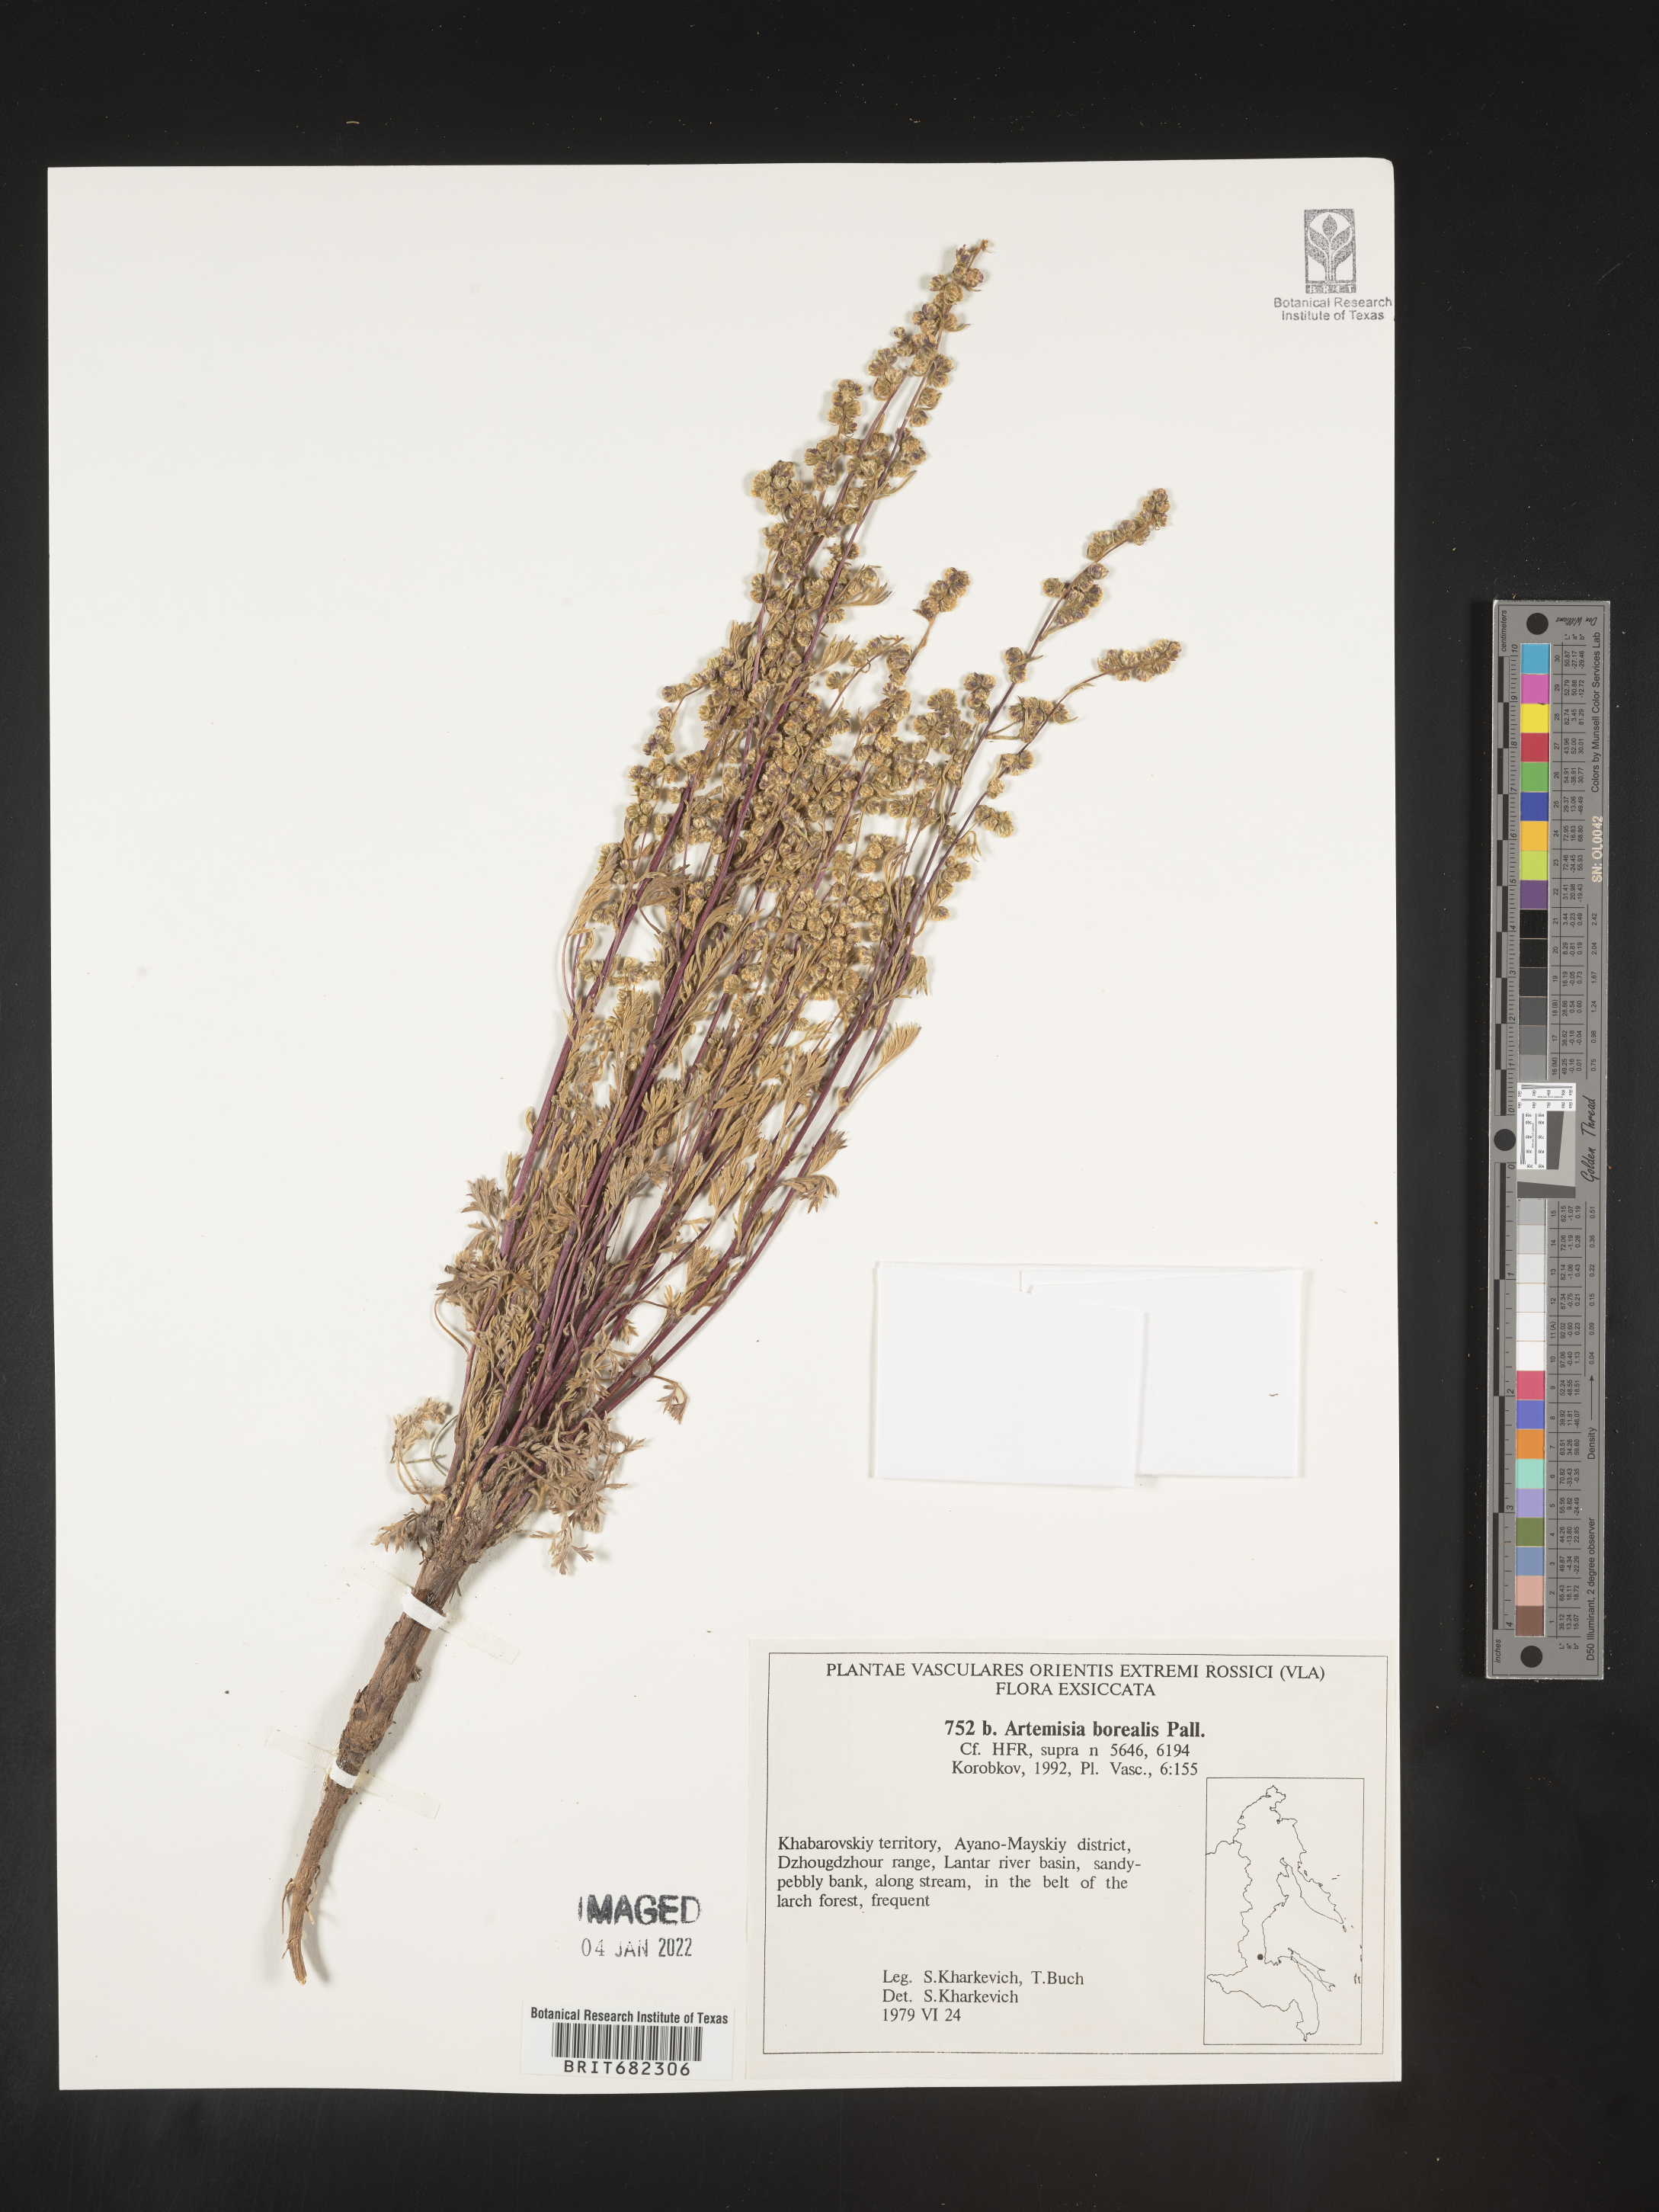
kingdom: Plantae
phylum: Tracheophyta
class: Magnoliopsida
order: Asterales
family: Asteraceae
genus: Artemisia
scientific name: Artemisia
